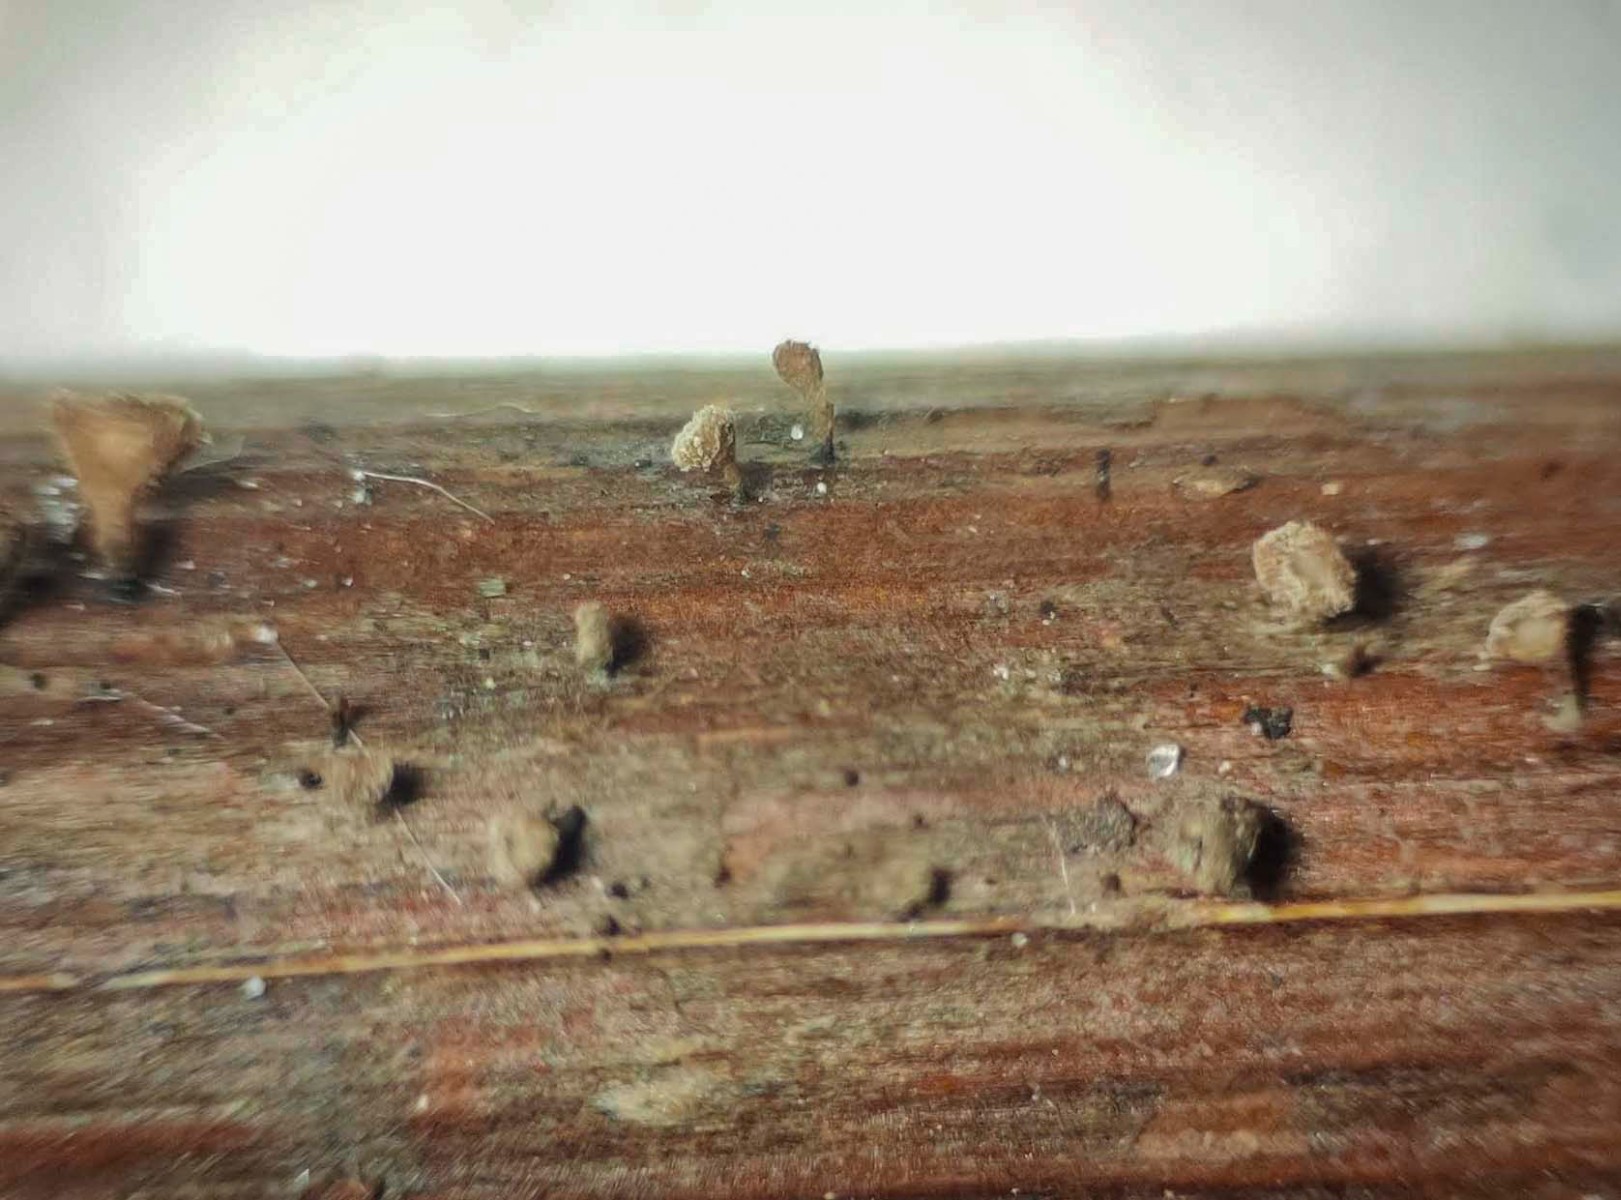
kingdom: Fungi
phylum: Ascomycota
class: Leotiomycetes
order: Helotiales
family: Lachnaceae
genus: Brunnipila
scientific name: Brunnipila clandestina
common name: hindbær-frynseskive
